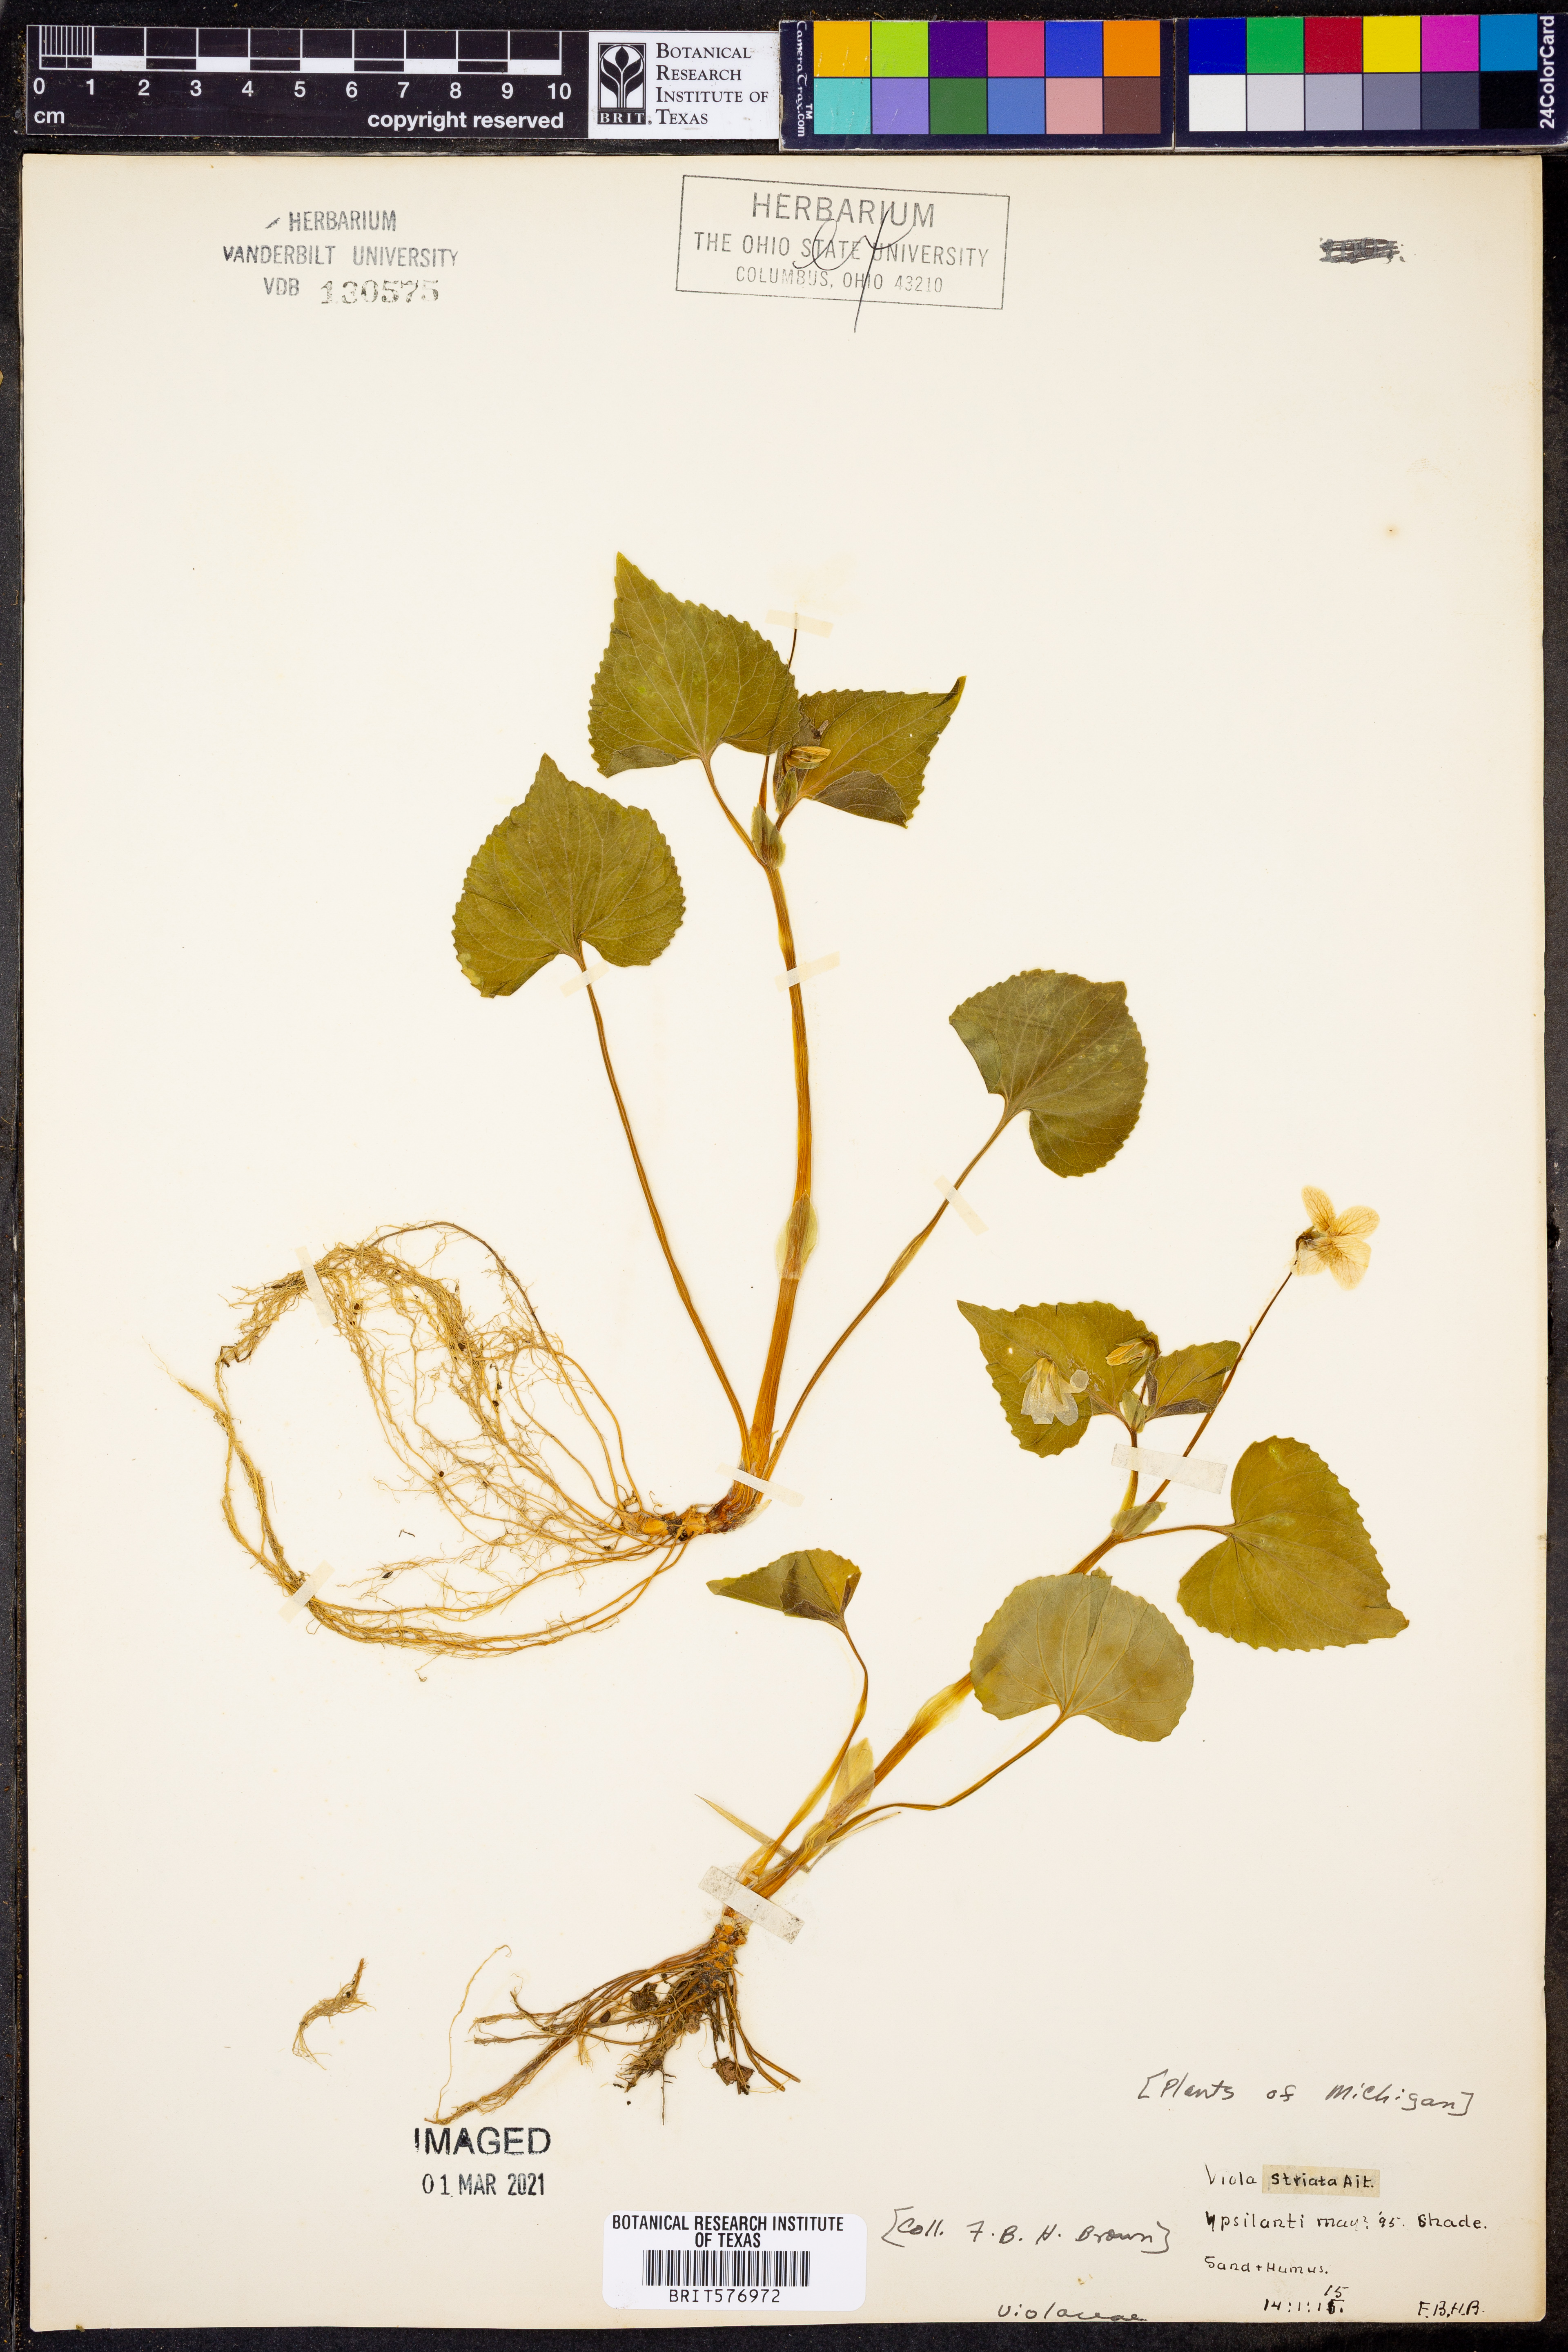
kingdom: Plantae
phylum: Tracheophyta
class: Magnoliopsida
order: Malpighiales
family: Violaceae
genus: Viola
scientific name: Viola striata
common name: Cream violet
